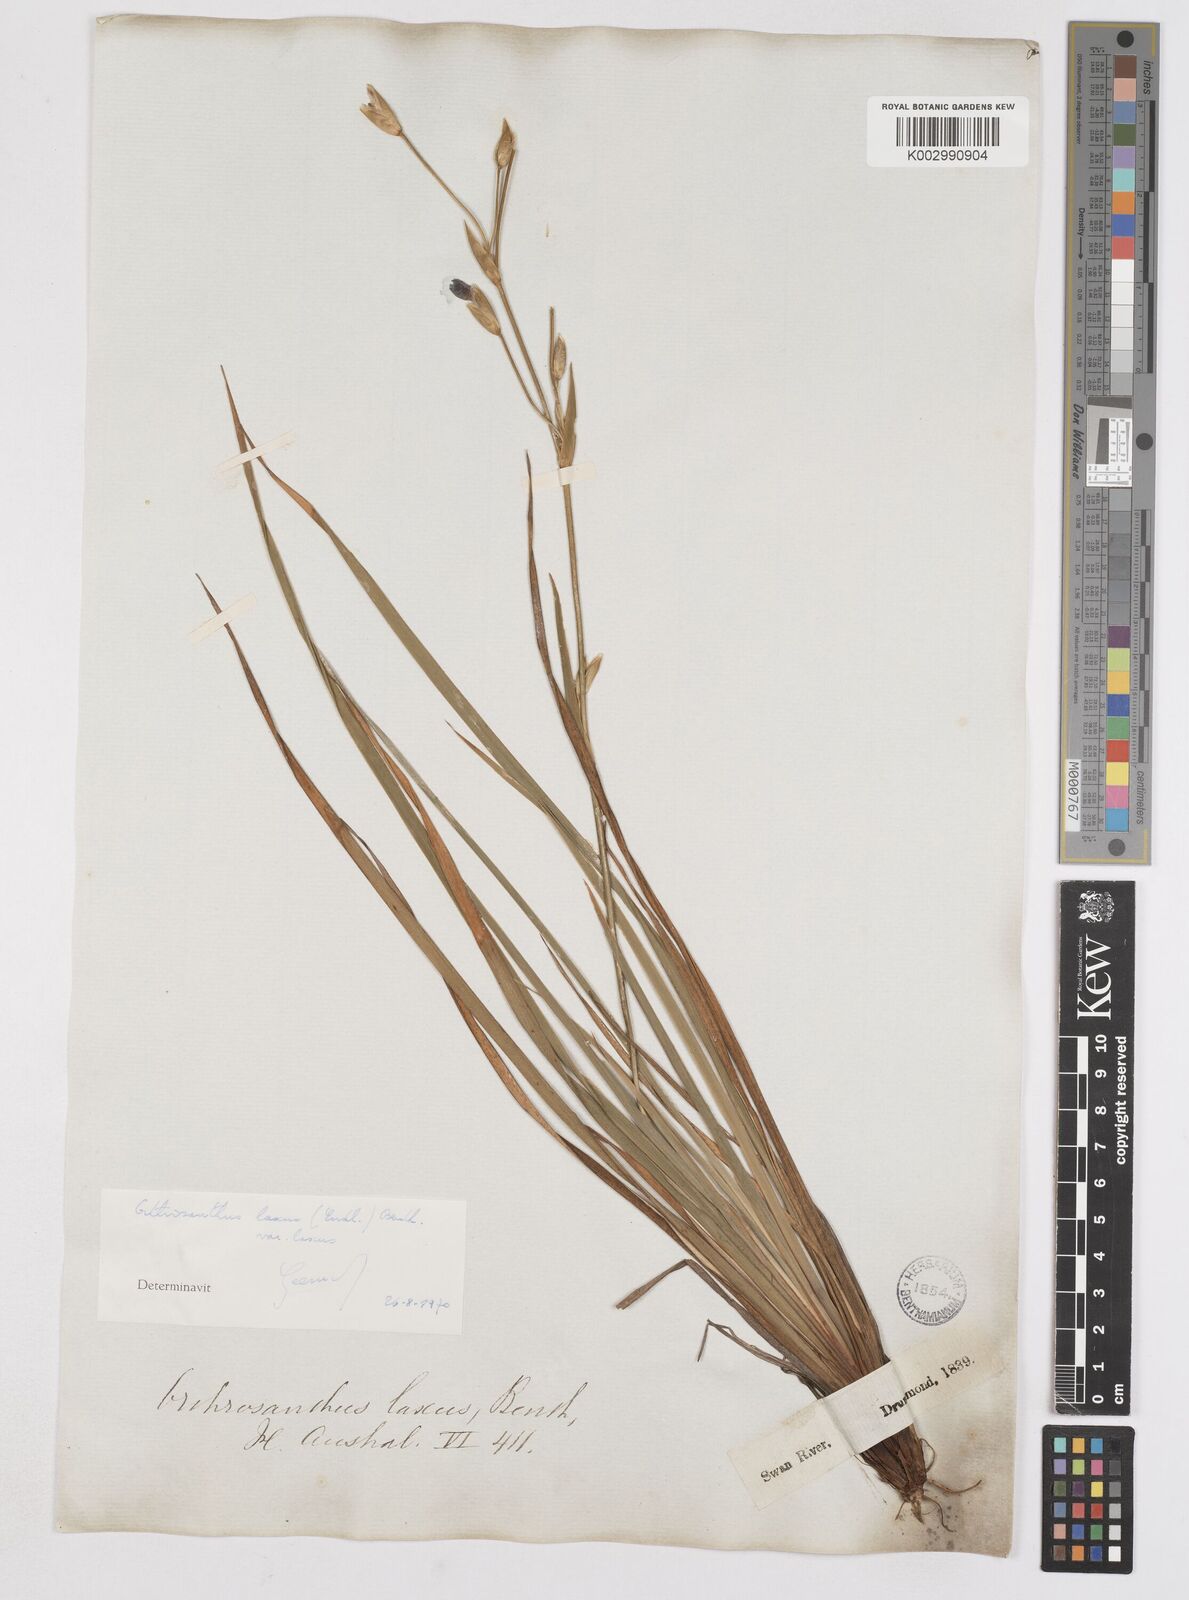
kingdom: Plantae
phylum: Tracheophyta
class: Liliopsida
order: Asparagales
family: Iridaceae
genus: Orthrosanthus
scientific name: Orthrosanthus laxus
